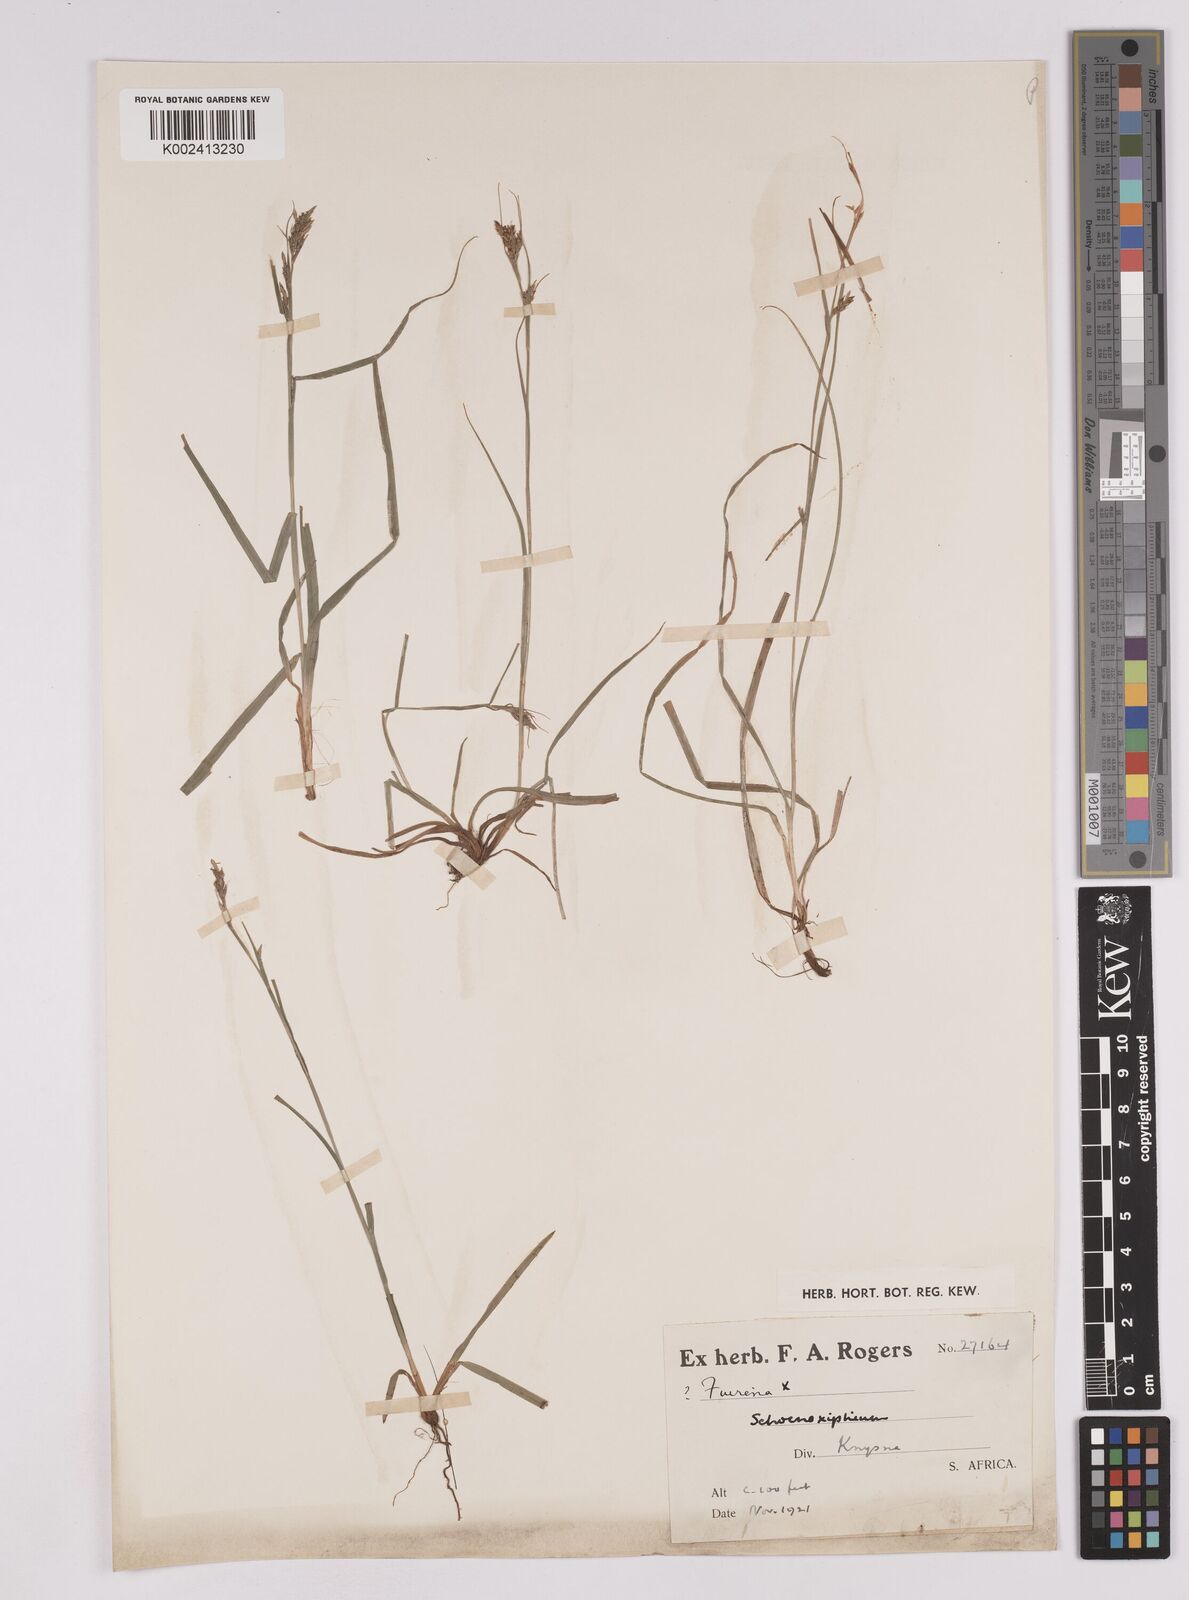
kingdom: Plantae
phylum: Tracheophyta
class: Liliopsida
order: Poales
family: Cyperaceae
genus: Carex
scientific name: Carex schimperiana
